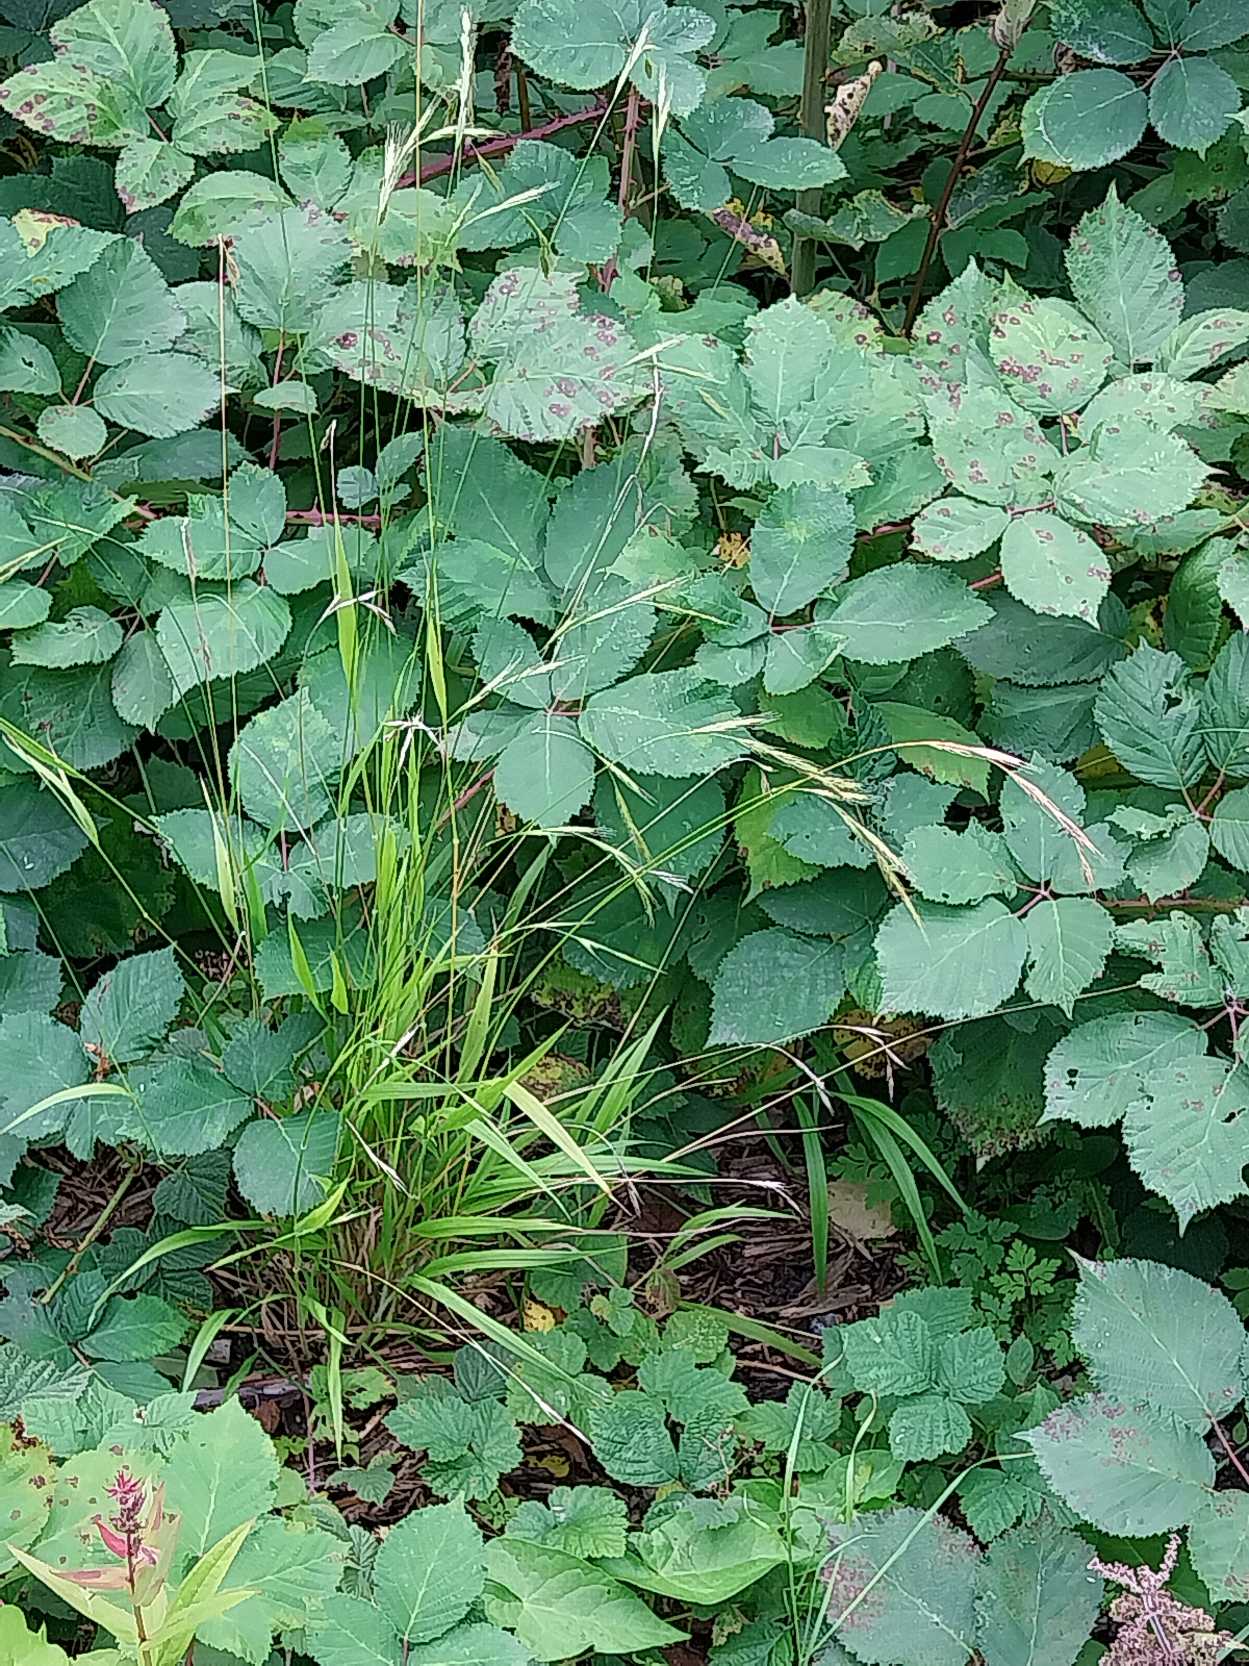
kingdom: Plantae
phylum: Tracheophyta
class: Liliopsida
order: Poales
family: Poaceae
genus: Brachypodium
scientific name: Brachypodium sylvaticum
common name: Skov-stilkaks
